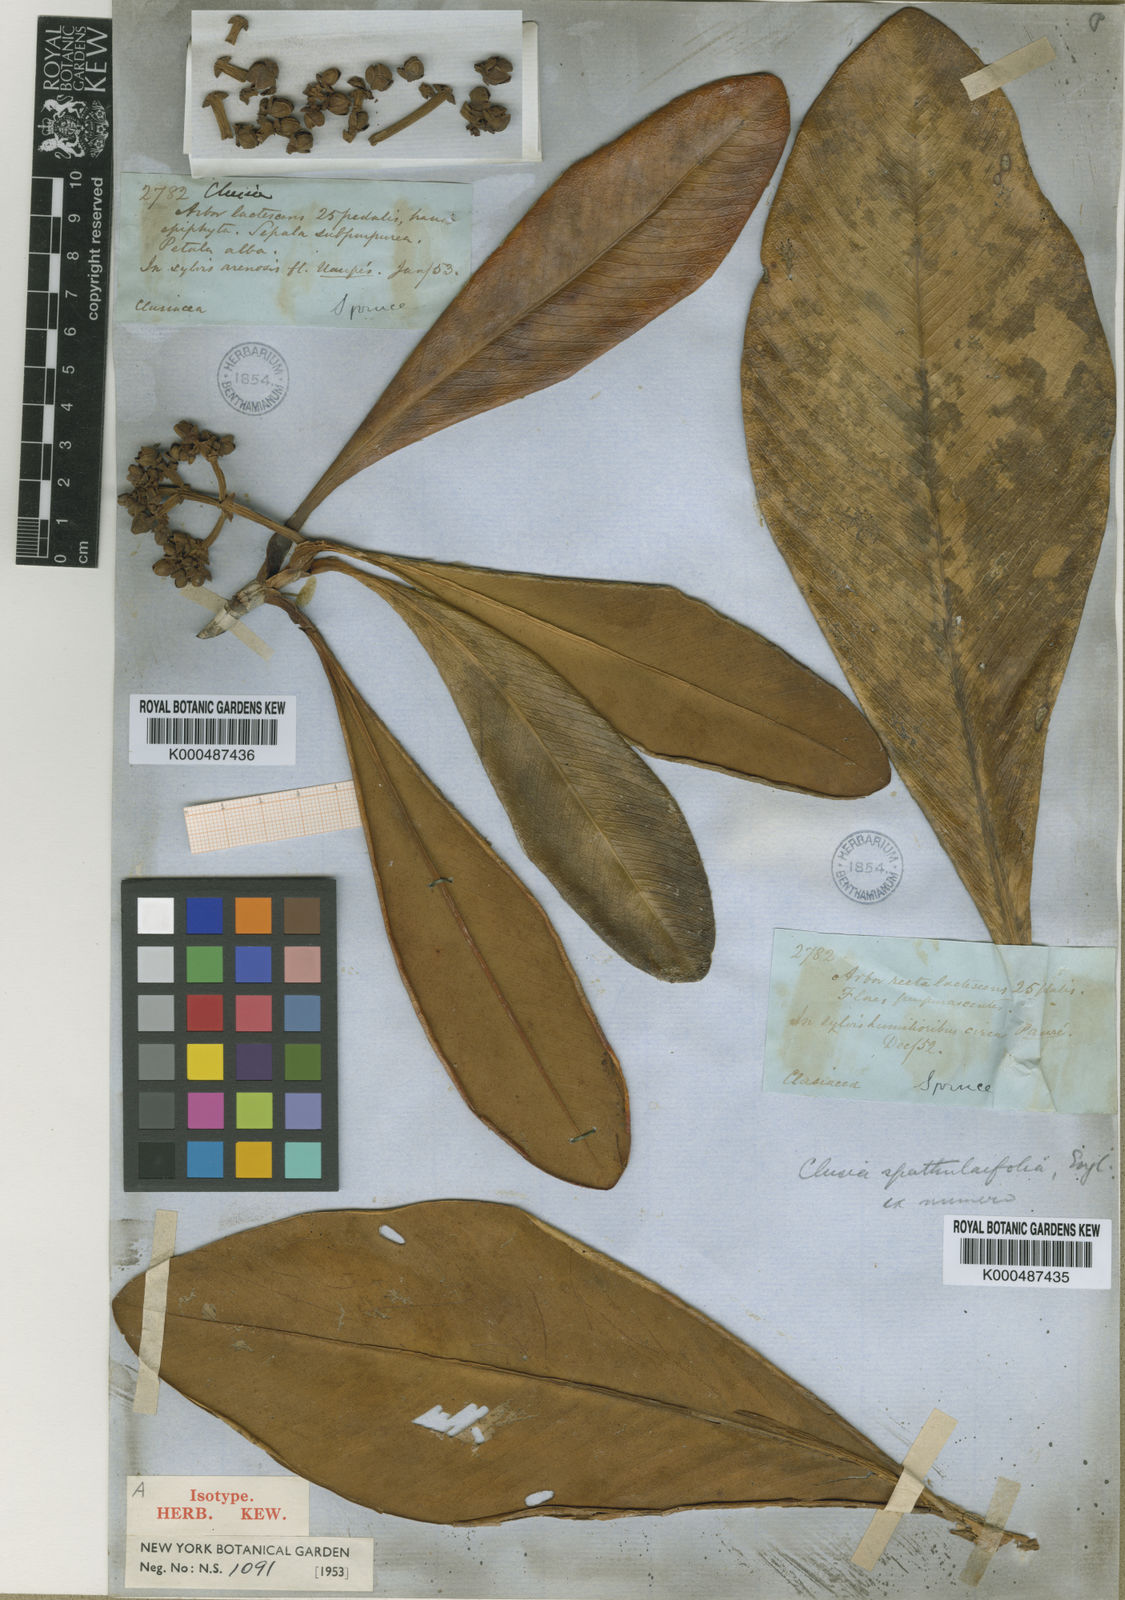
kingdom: Plantae
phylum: Tracheophyta
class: Magnoliopsida
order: Malpighiales
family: Clusiaceae
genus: Clusia
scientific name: Clusia spathulifolia
